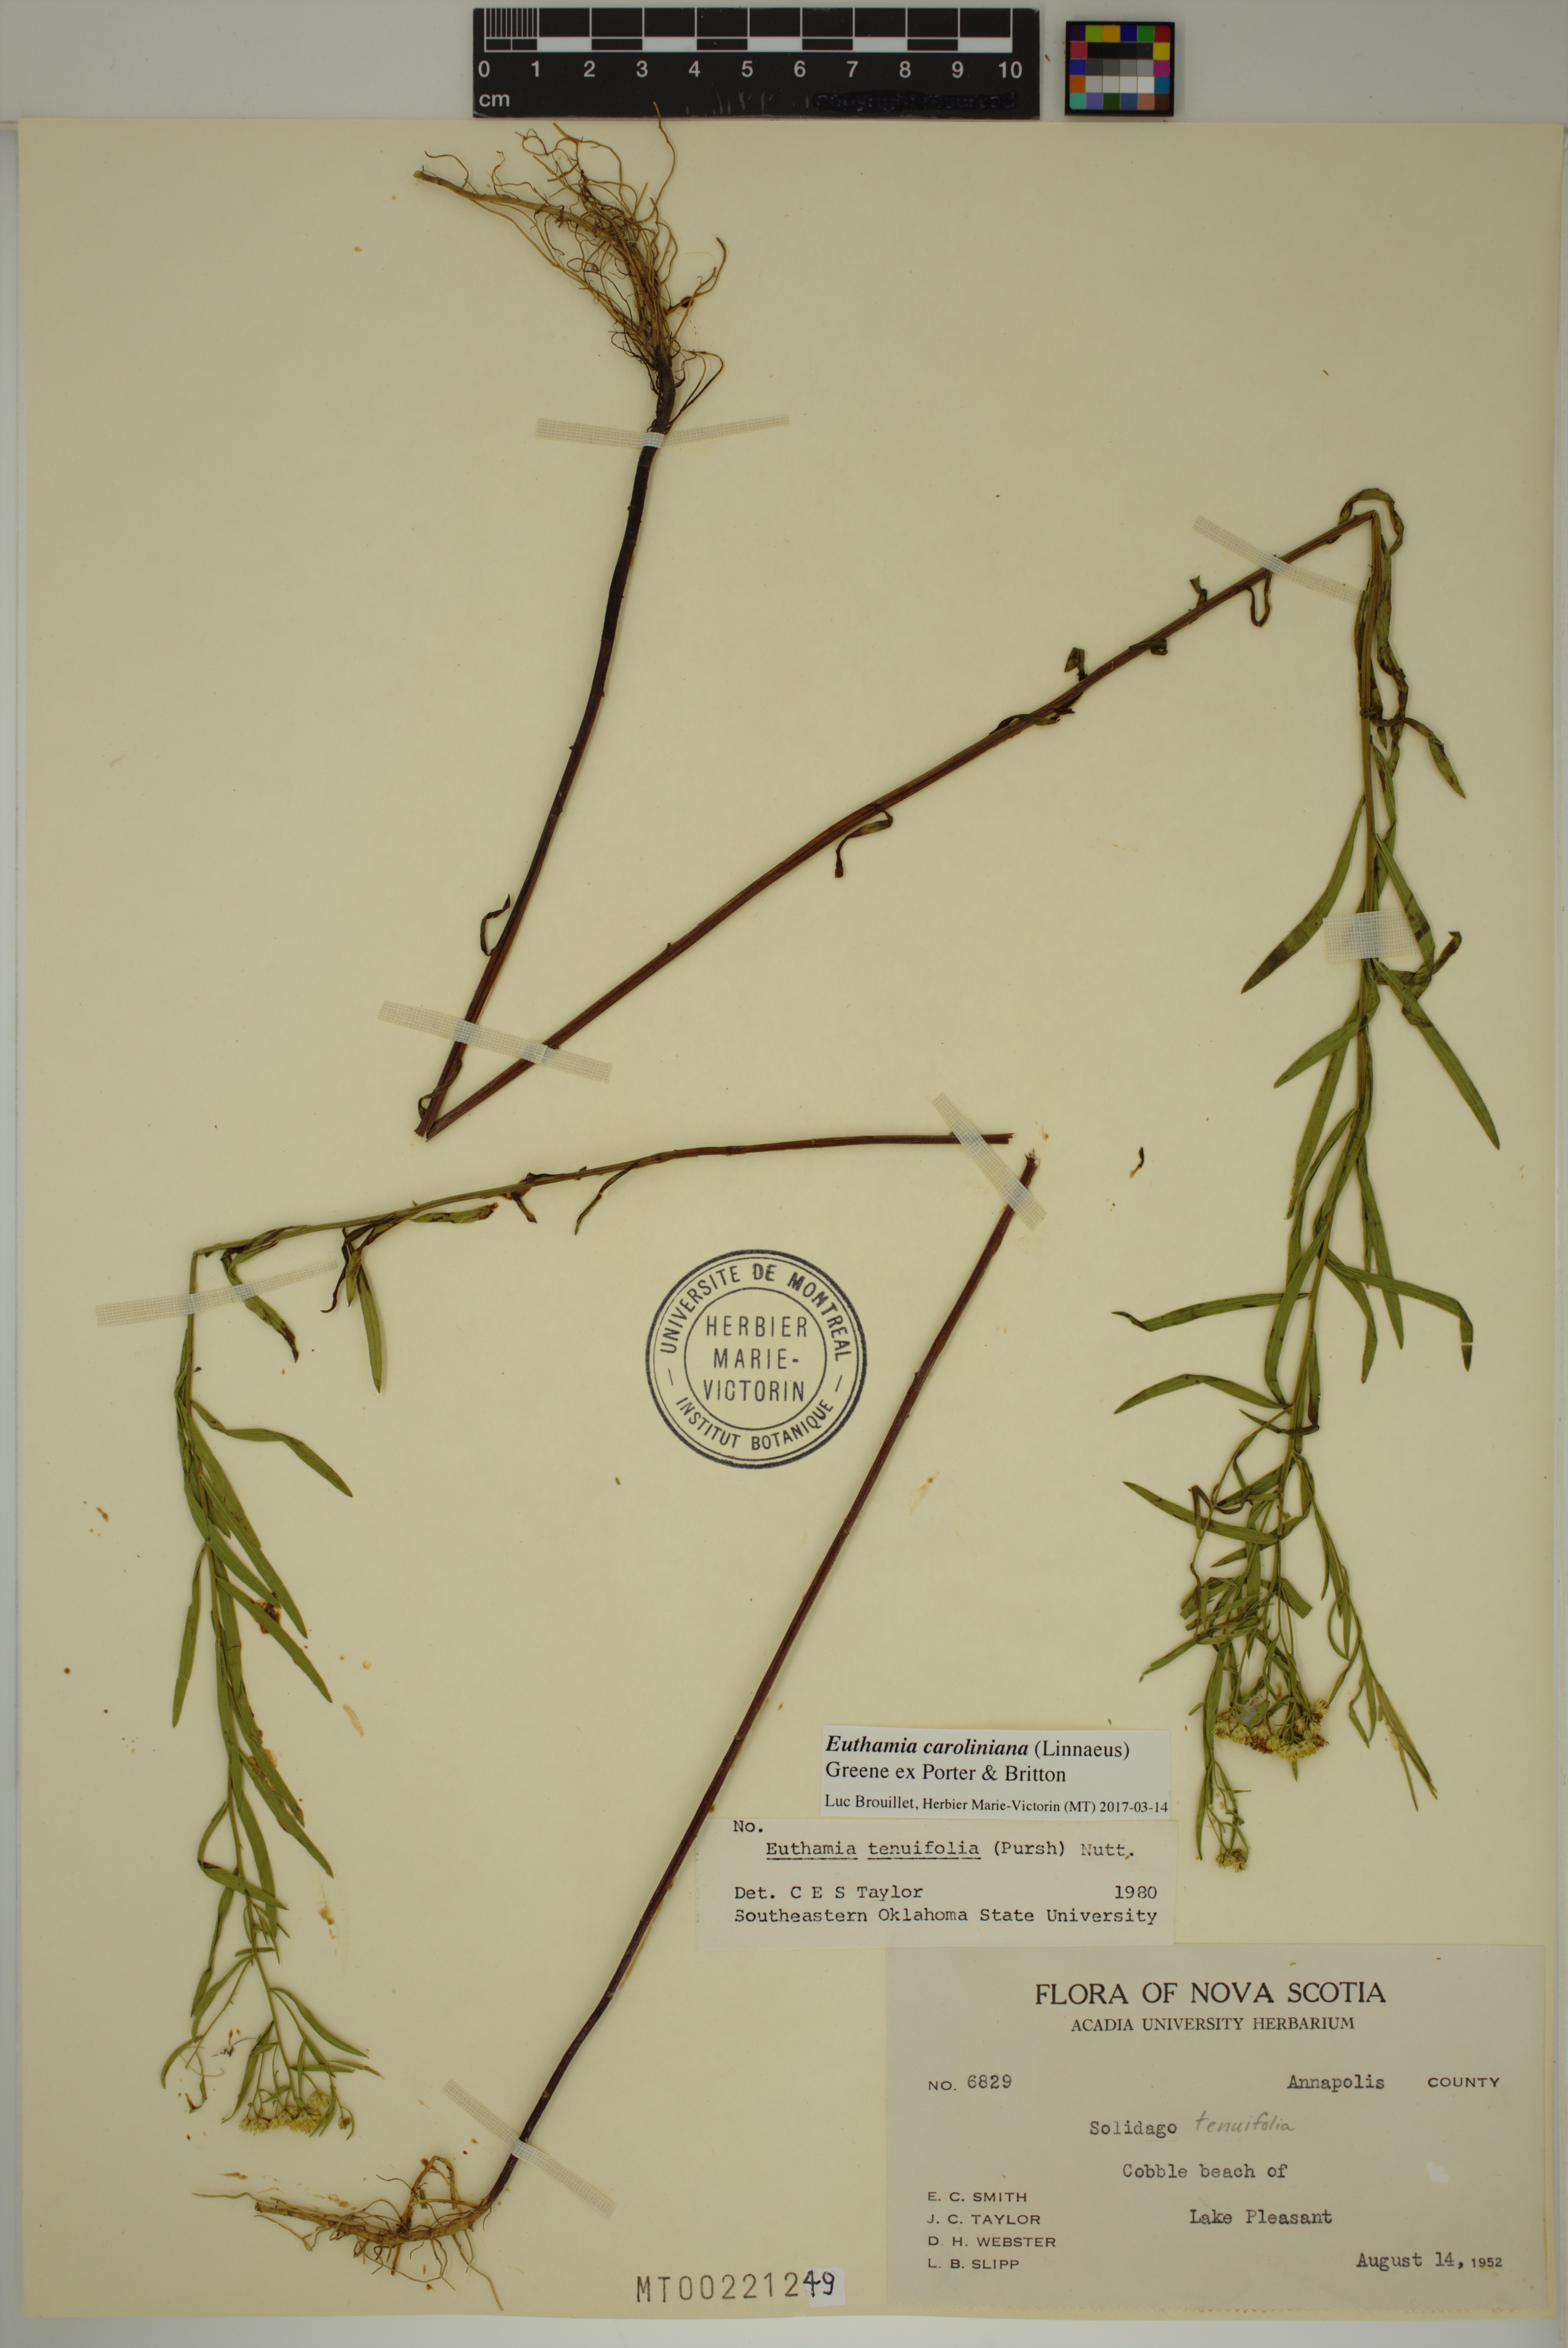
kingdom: Plantae
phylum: Tracheophyta
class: Magnoliopsida
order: Asterales
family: Asteraceae
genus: Euthamia
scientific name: Euthamia galetorum
